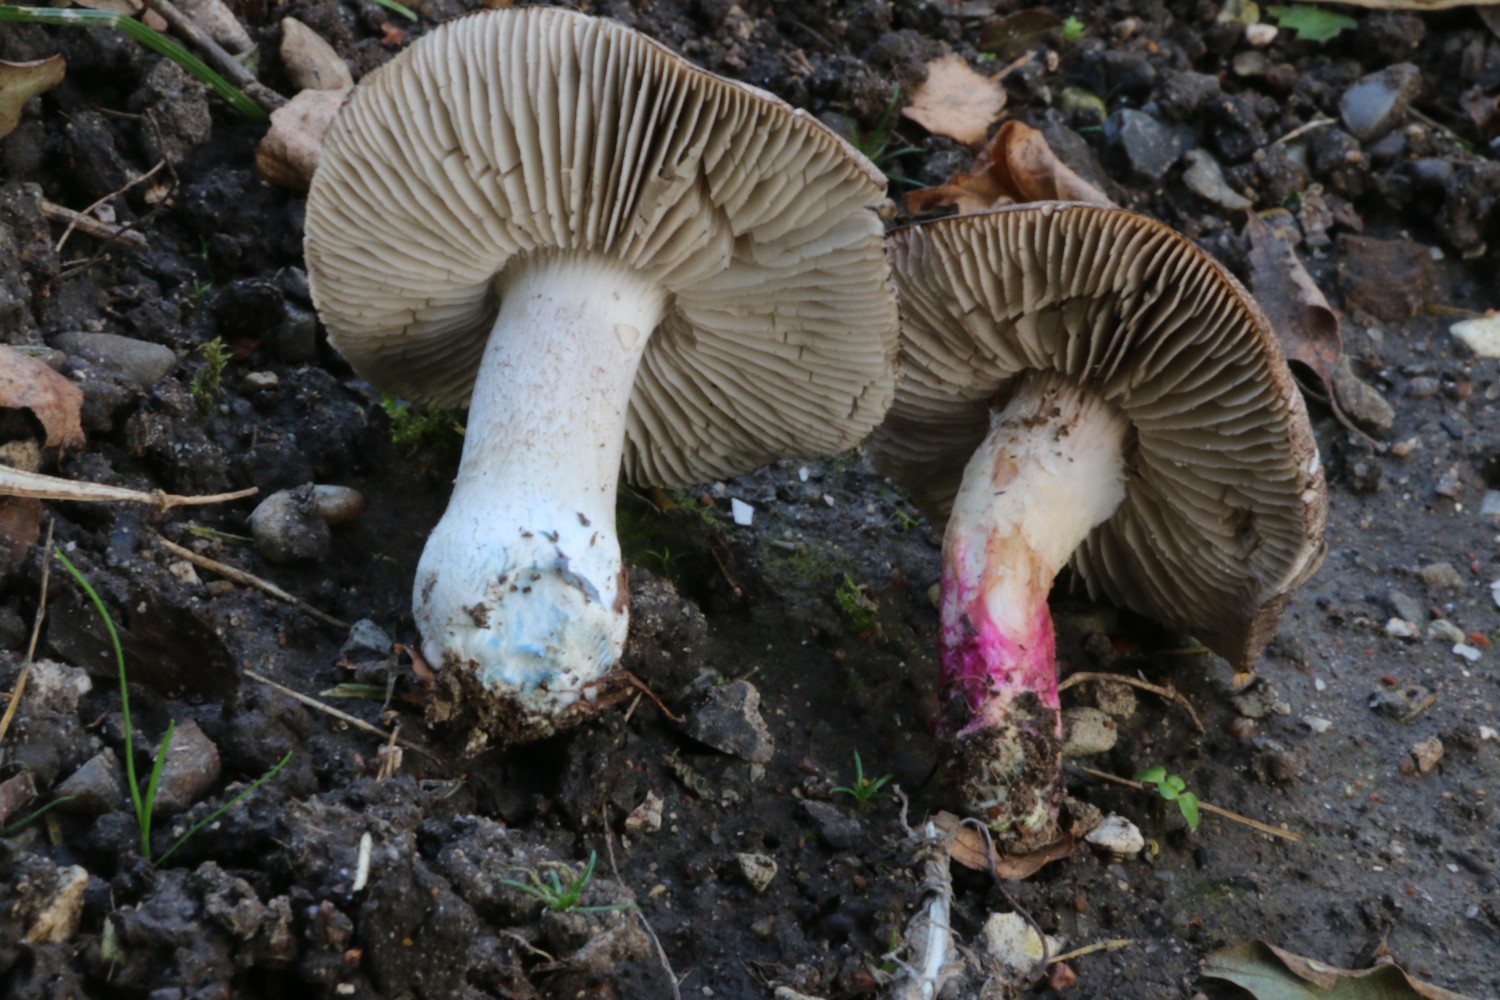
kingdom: Fungi
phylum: Basidiomycota
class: Agaricomycetes
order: Agaricales
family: Tricholomataceae
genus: Tricholoma
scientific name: Tricholoma orirubens
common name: rødbladet ridderhat
